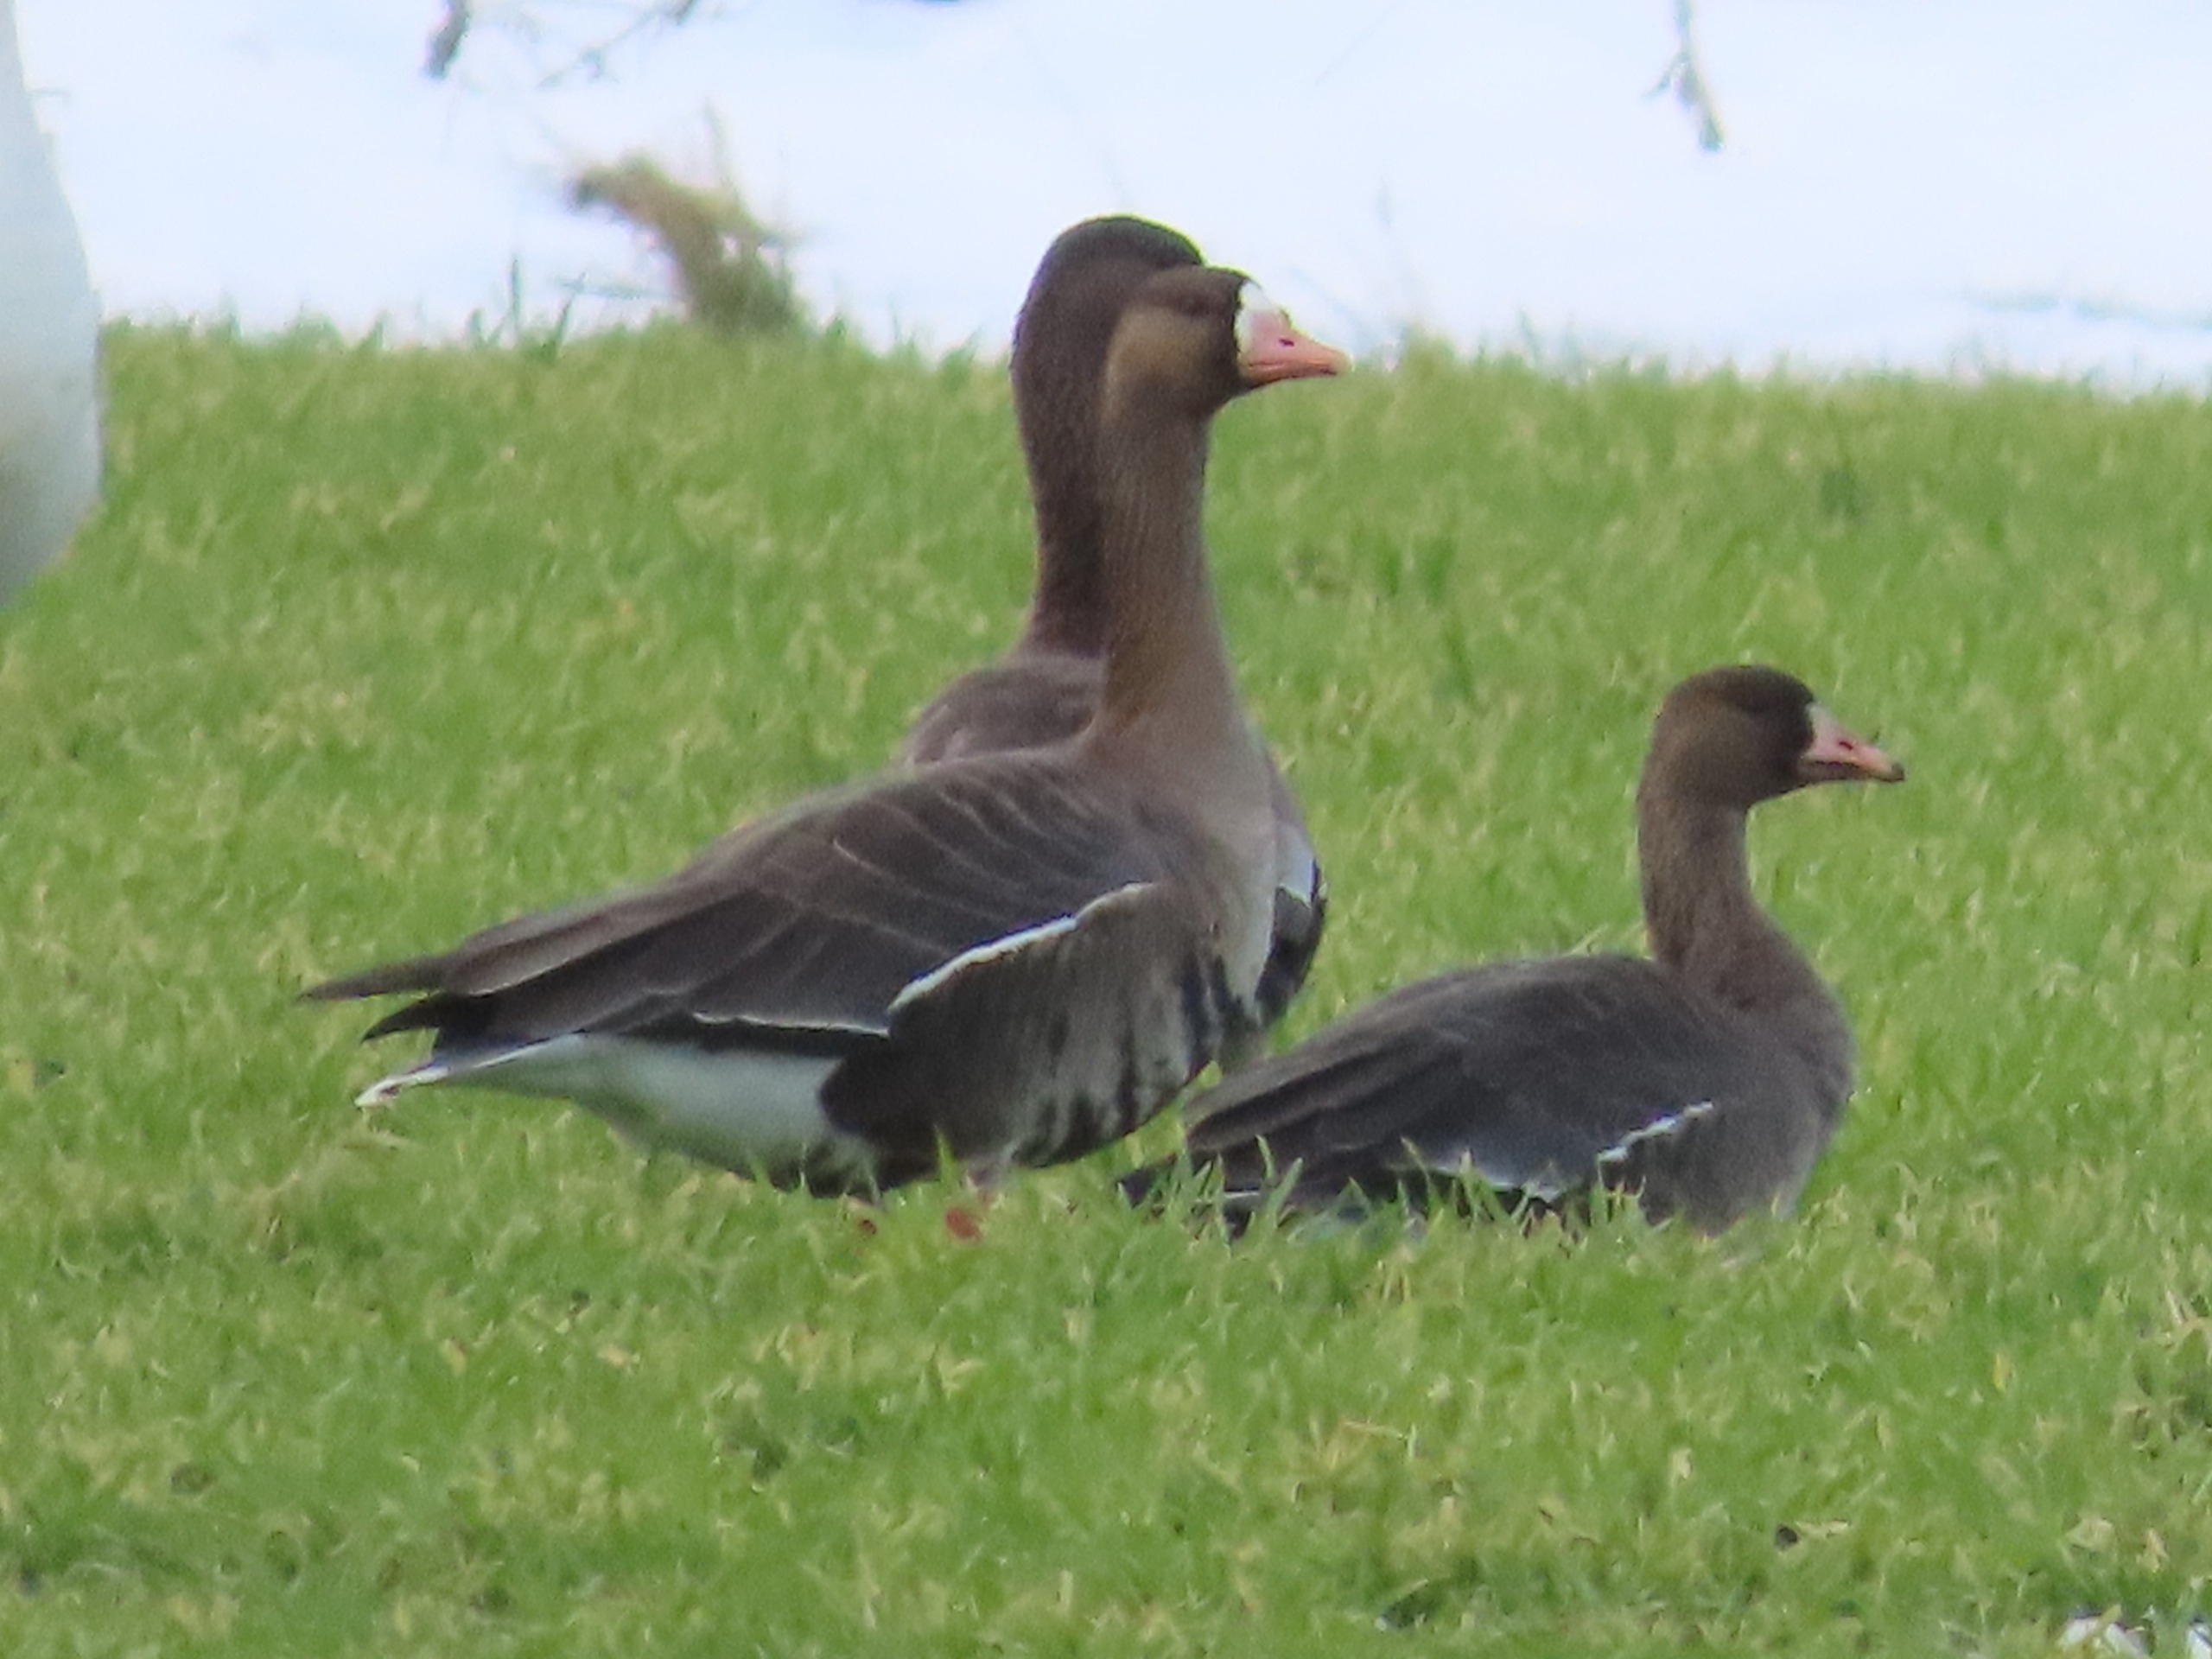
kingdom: Animalia
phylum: Chordata
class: Aves
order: Anseriformes
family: Anatidae
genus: Anser
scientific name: Anser albifrons
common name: Blisgås
